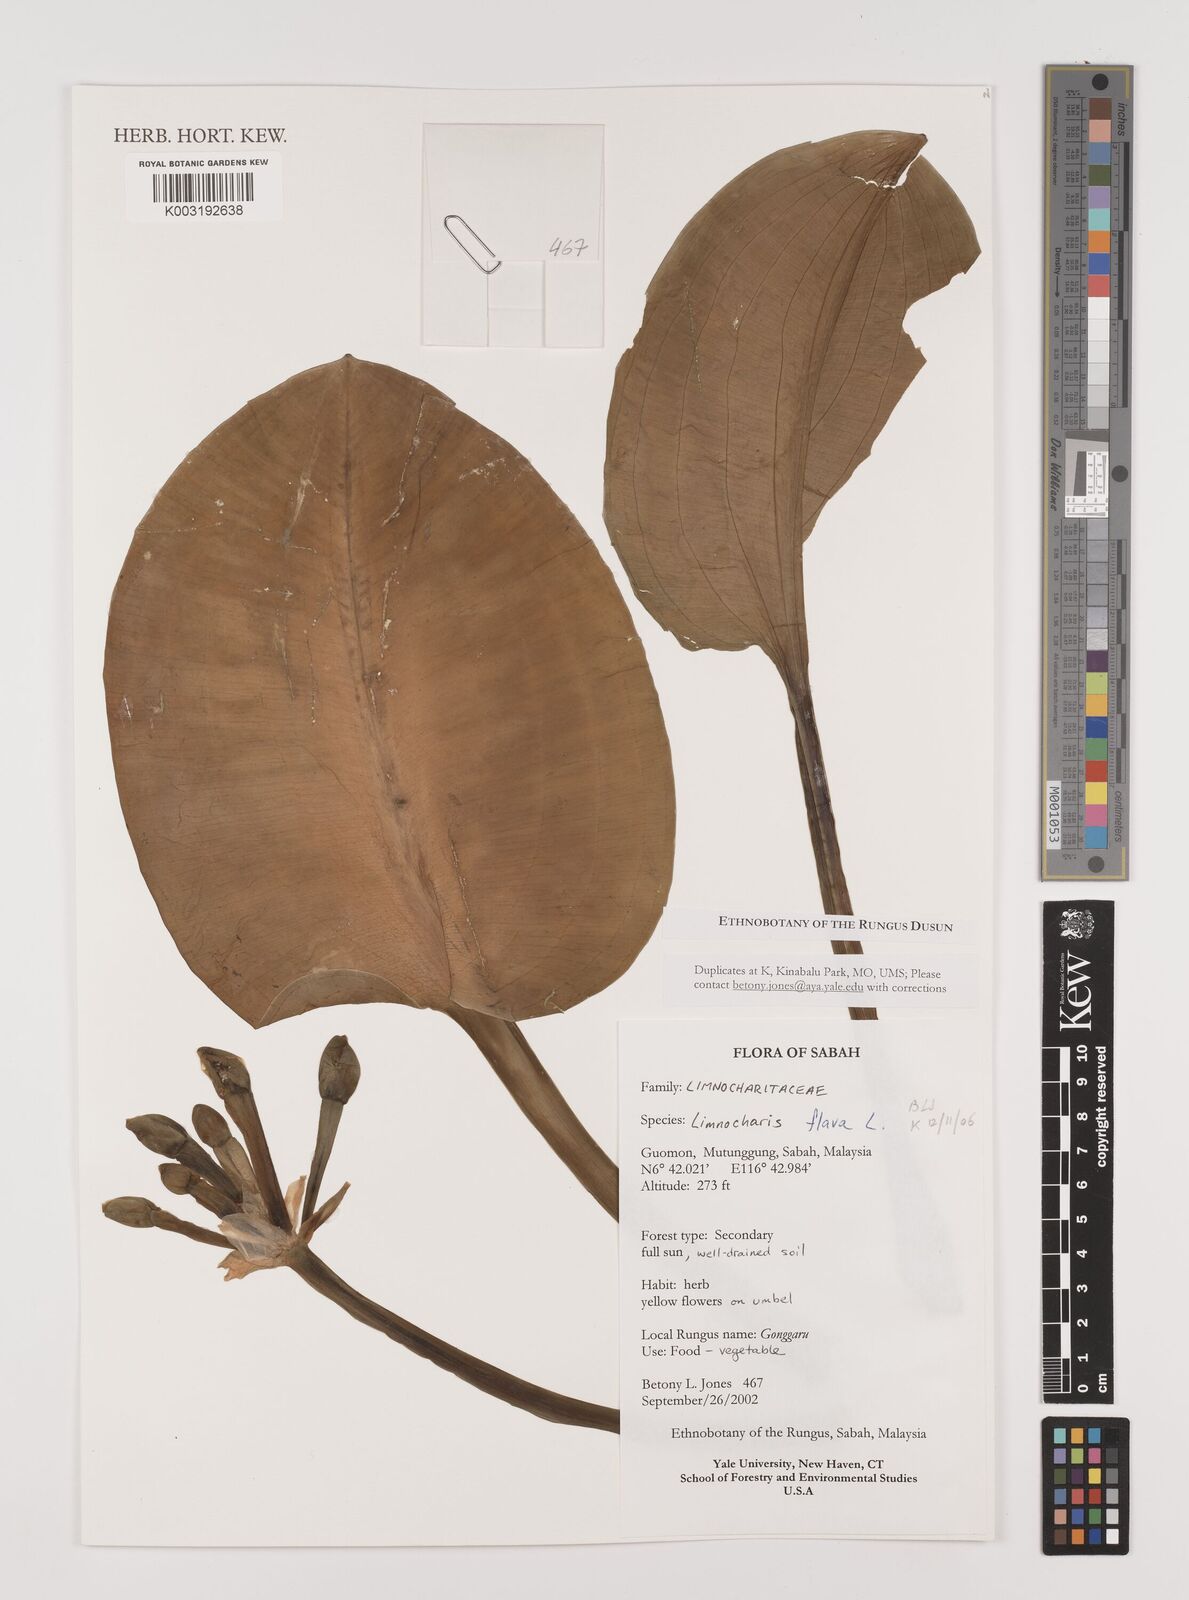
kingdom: Plantae
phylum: Tracheophyta
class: Liliopsida
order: Alismatales
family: Alismataceae
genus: Limnocharis
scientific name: Limnocharis flava
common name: Sawah-flower-rush
